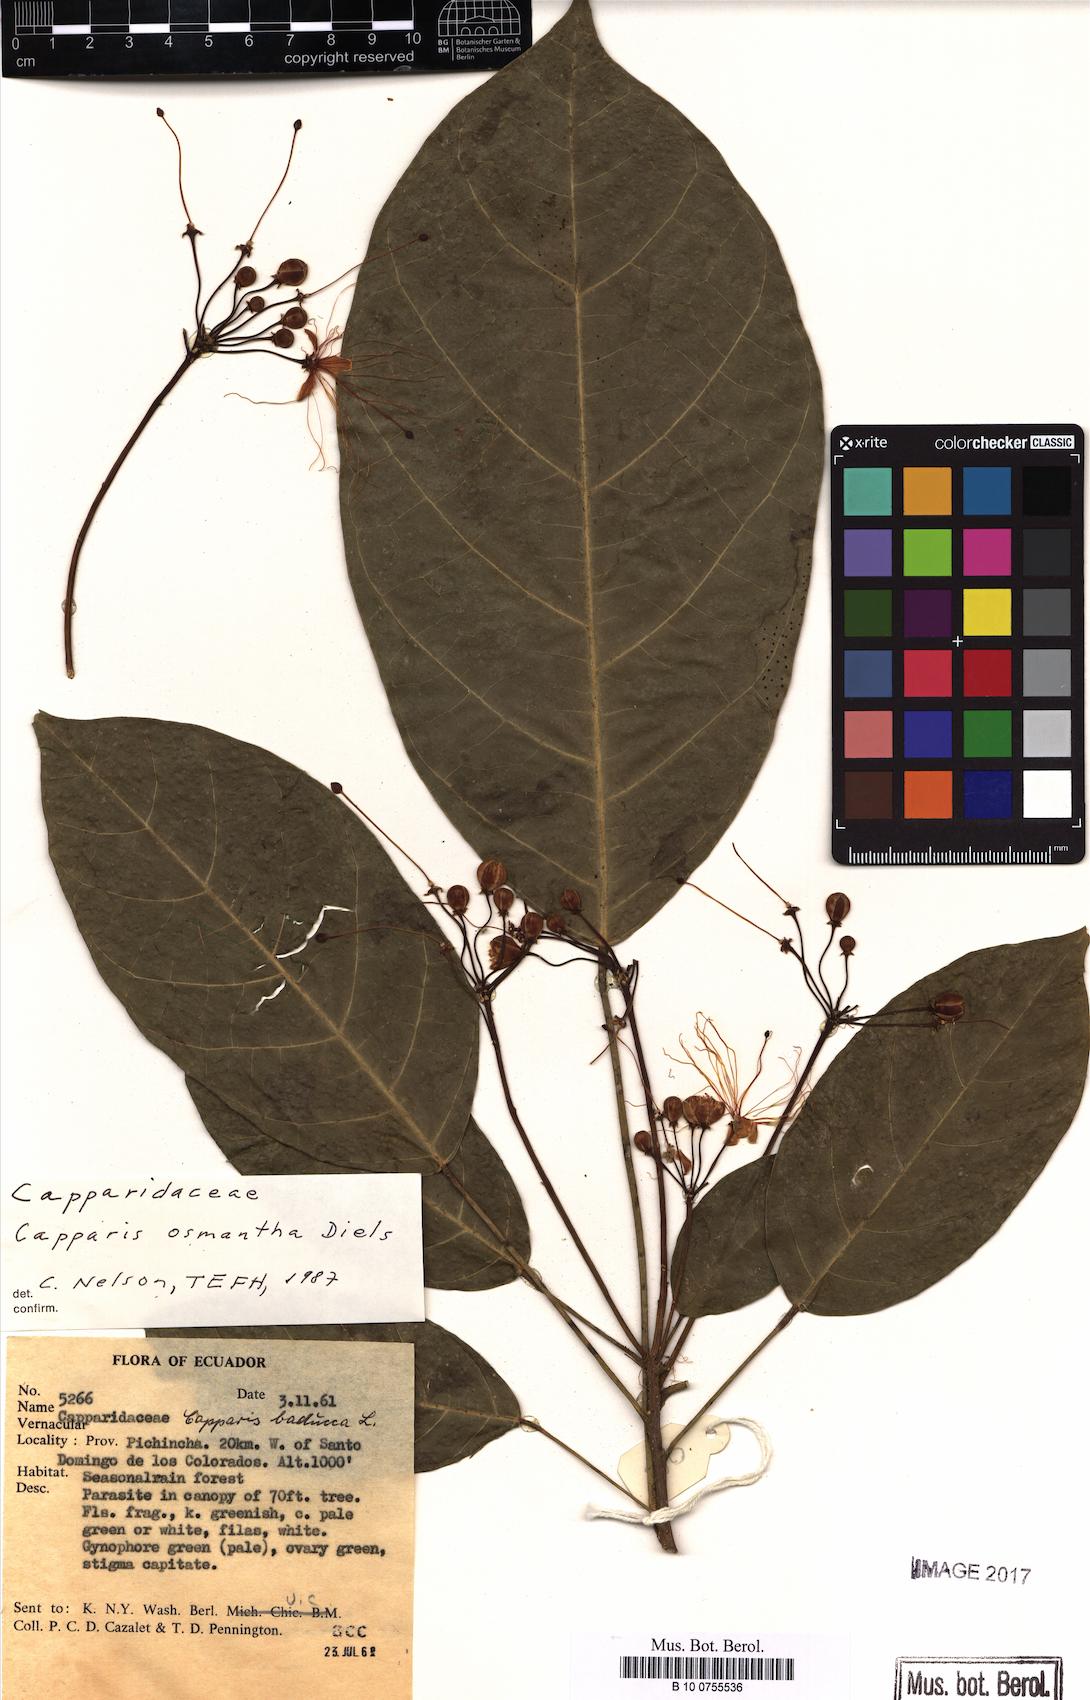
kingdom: Plantae
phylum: Tracheophyta
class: Magnoliopsida
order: Brassicales
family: Capparaceae
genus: Capparidastrum
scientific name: Capparidastrum osmanthum
